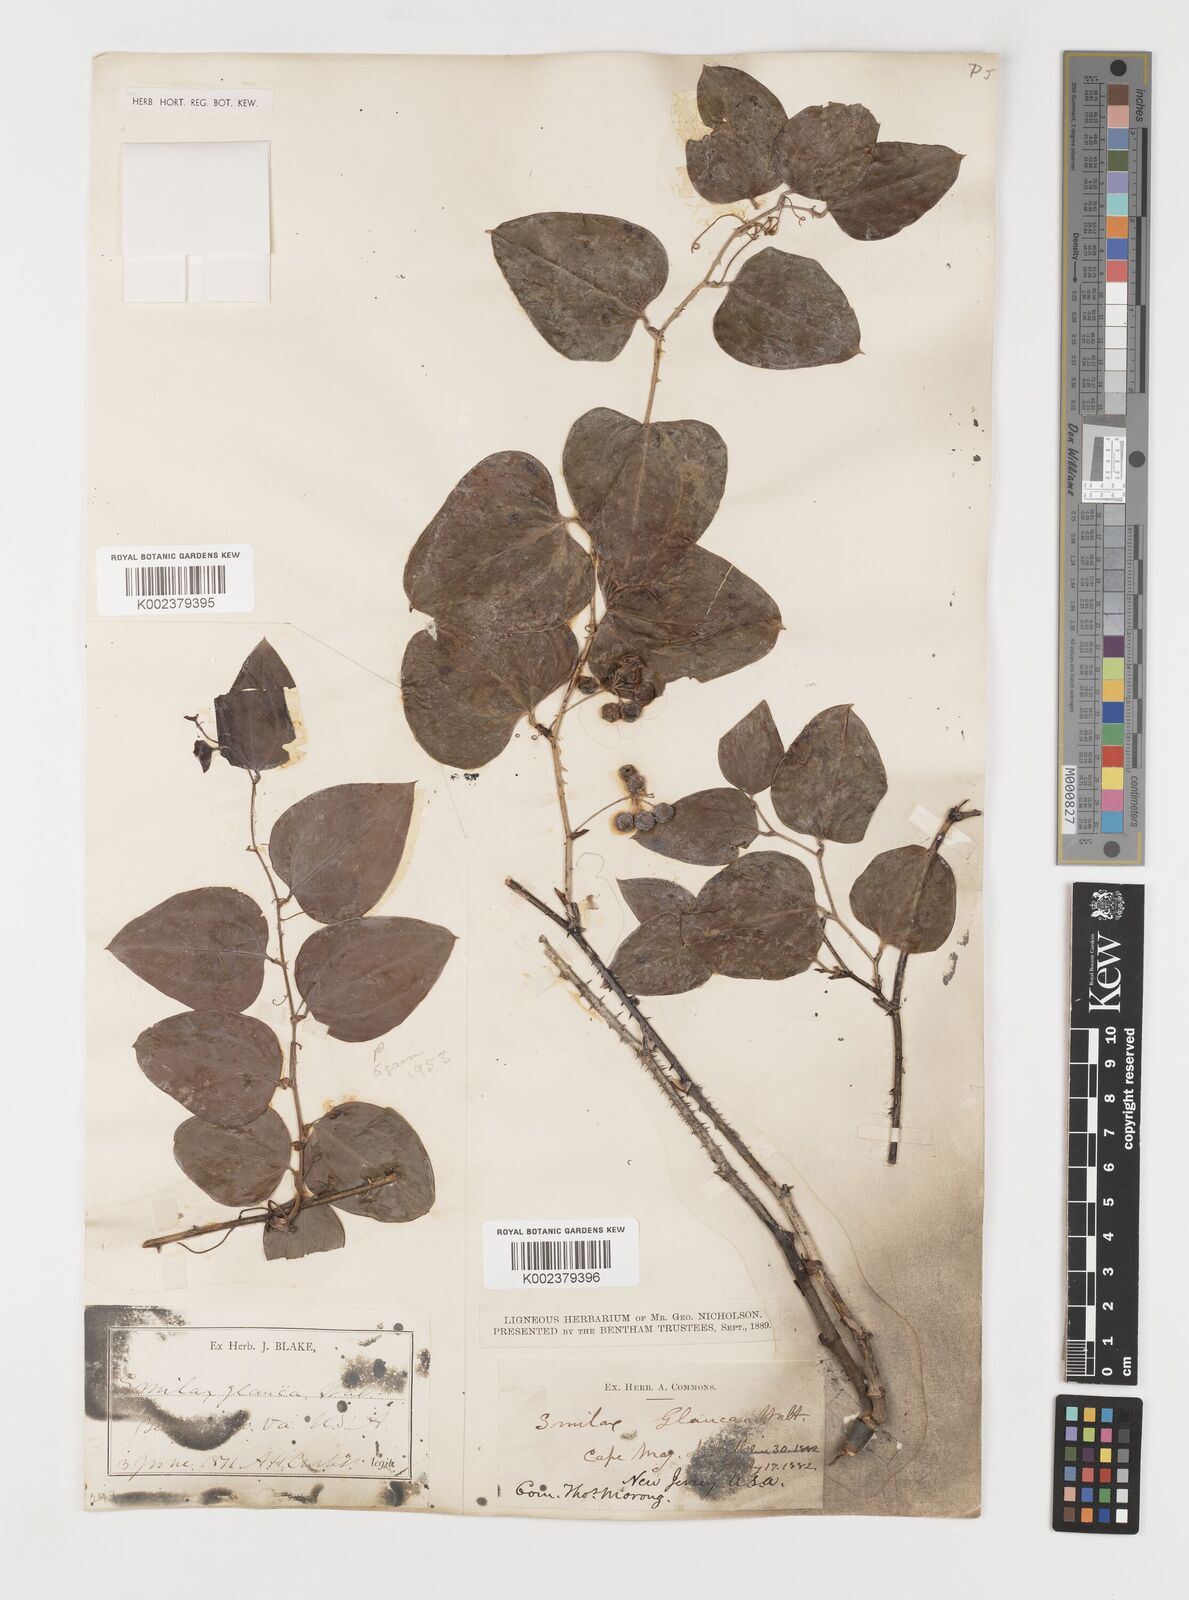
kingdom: Plantae
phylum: Tracheophyta
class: Liliopsida
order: Liliales
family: Smilacaceae
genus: Smilax
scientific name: Smilax glauca
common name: Cat greenbrier
